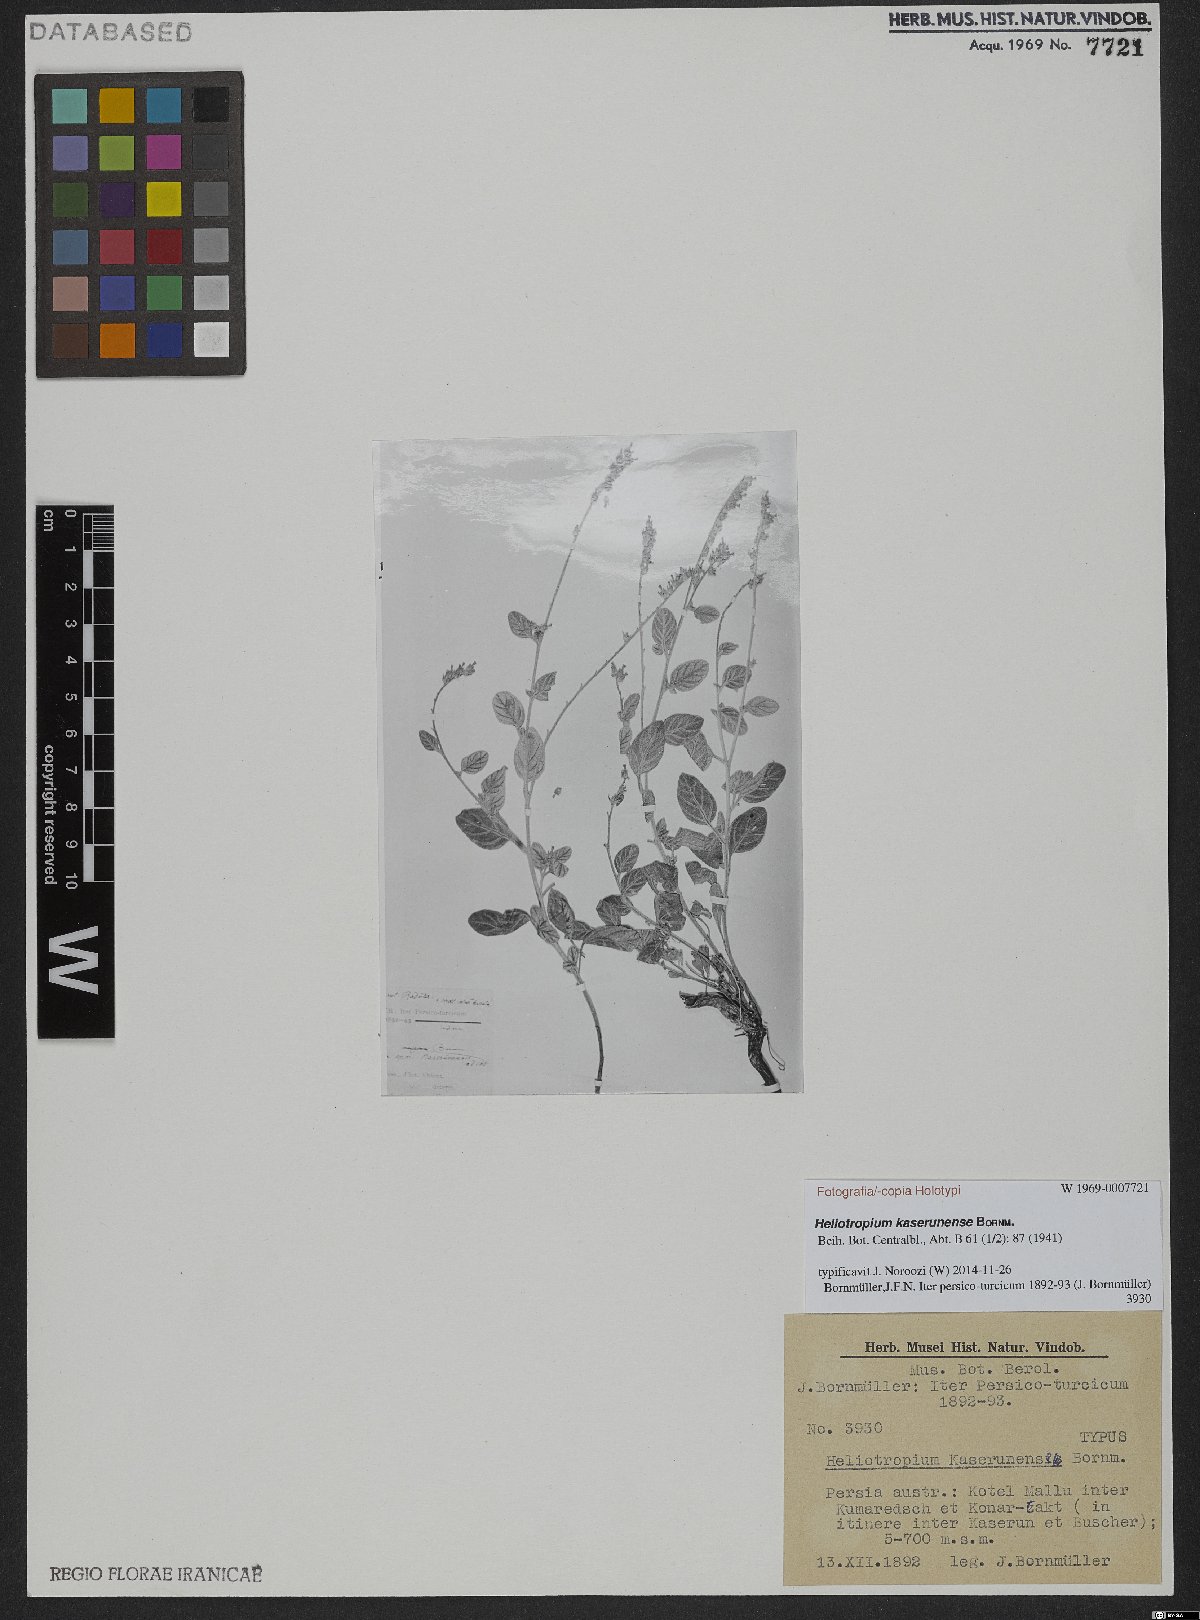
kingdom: Plantae
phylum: Tracheophyta
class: Magnoliopsida
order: Boraginales
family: Heliotropiaceae
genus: Heliotropium
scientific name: Heliotropium kaserunense
